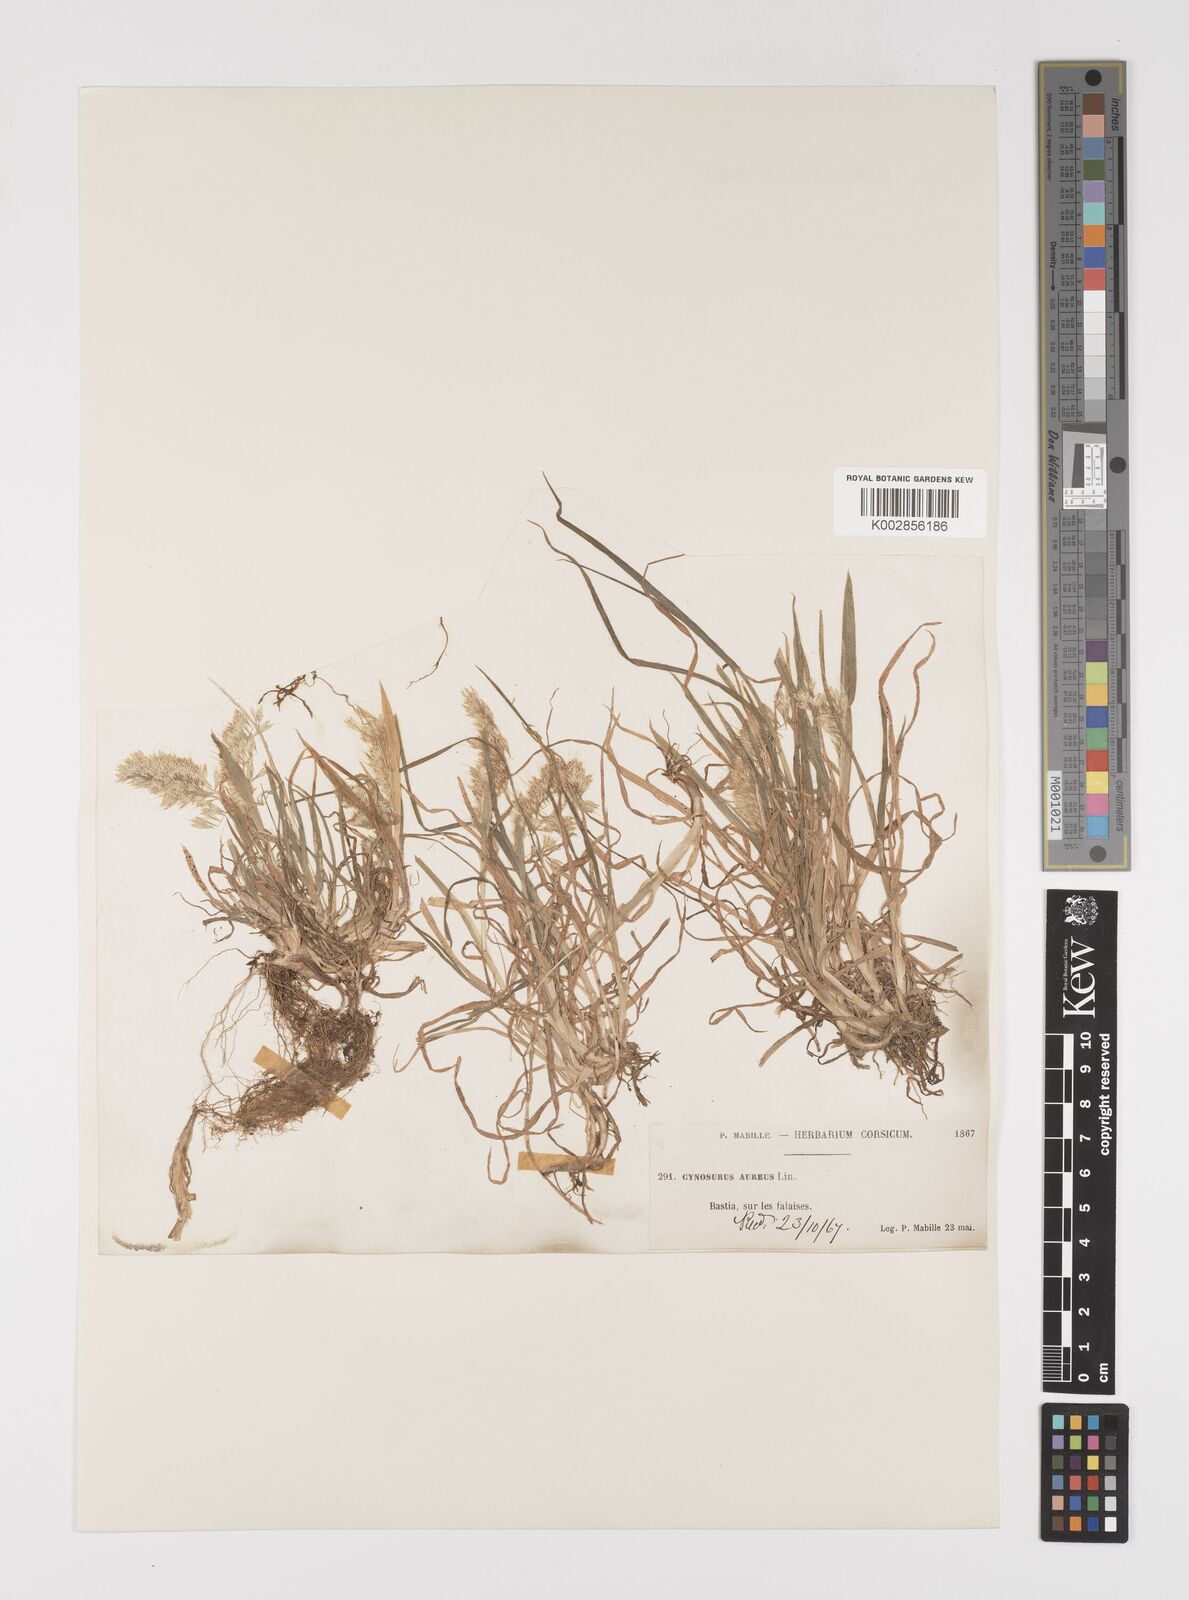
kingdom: Plantae
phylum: Tracheophyta
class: Liliopsida
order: Poales
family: Poaceae
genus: Lamarckia
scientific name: Lamarckia aurea
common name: Golden dog's-tail
